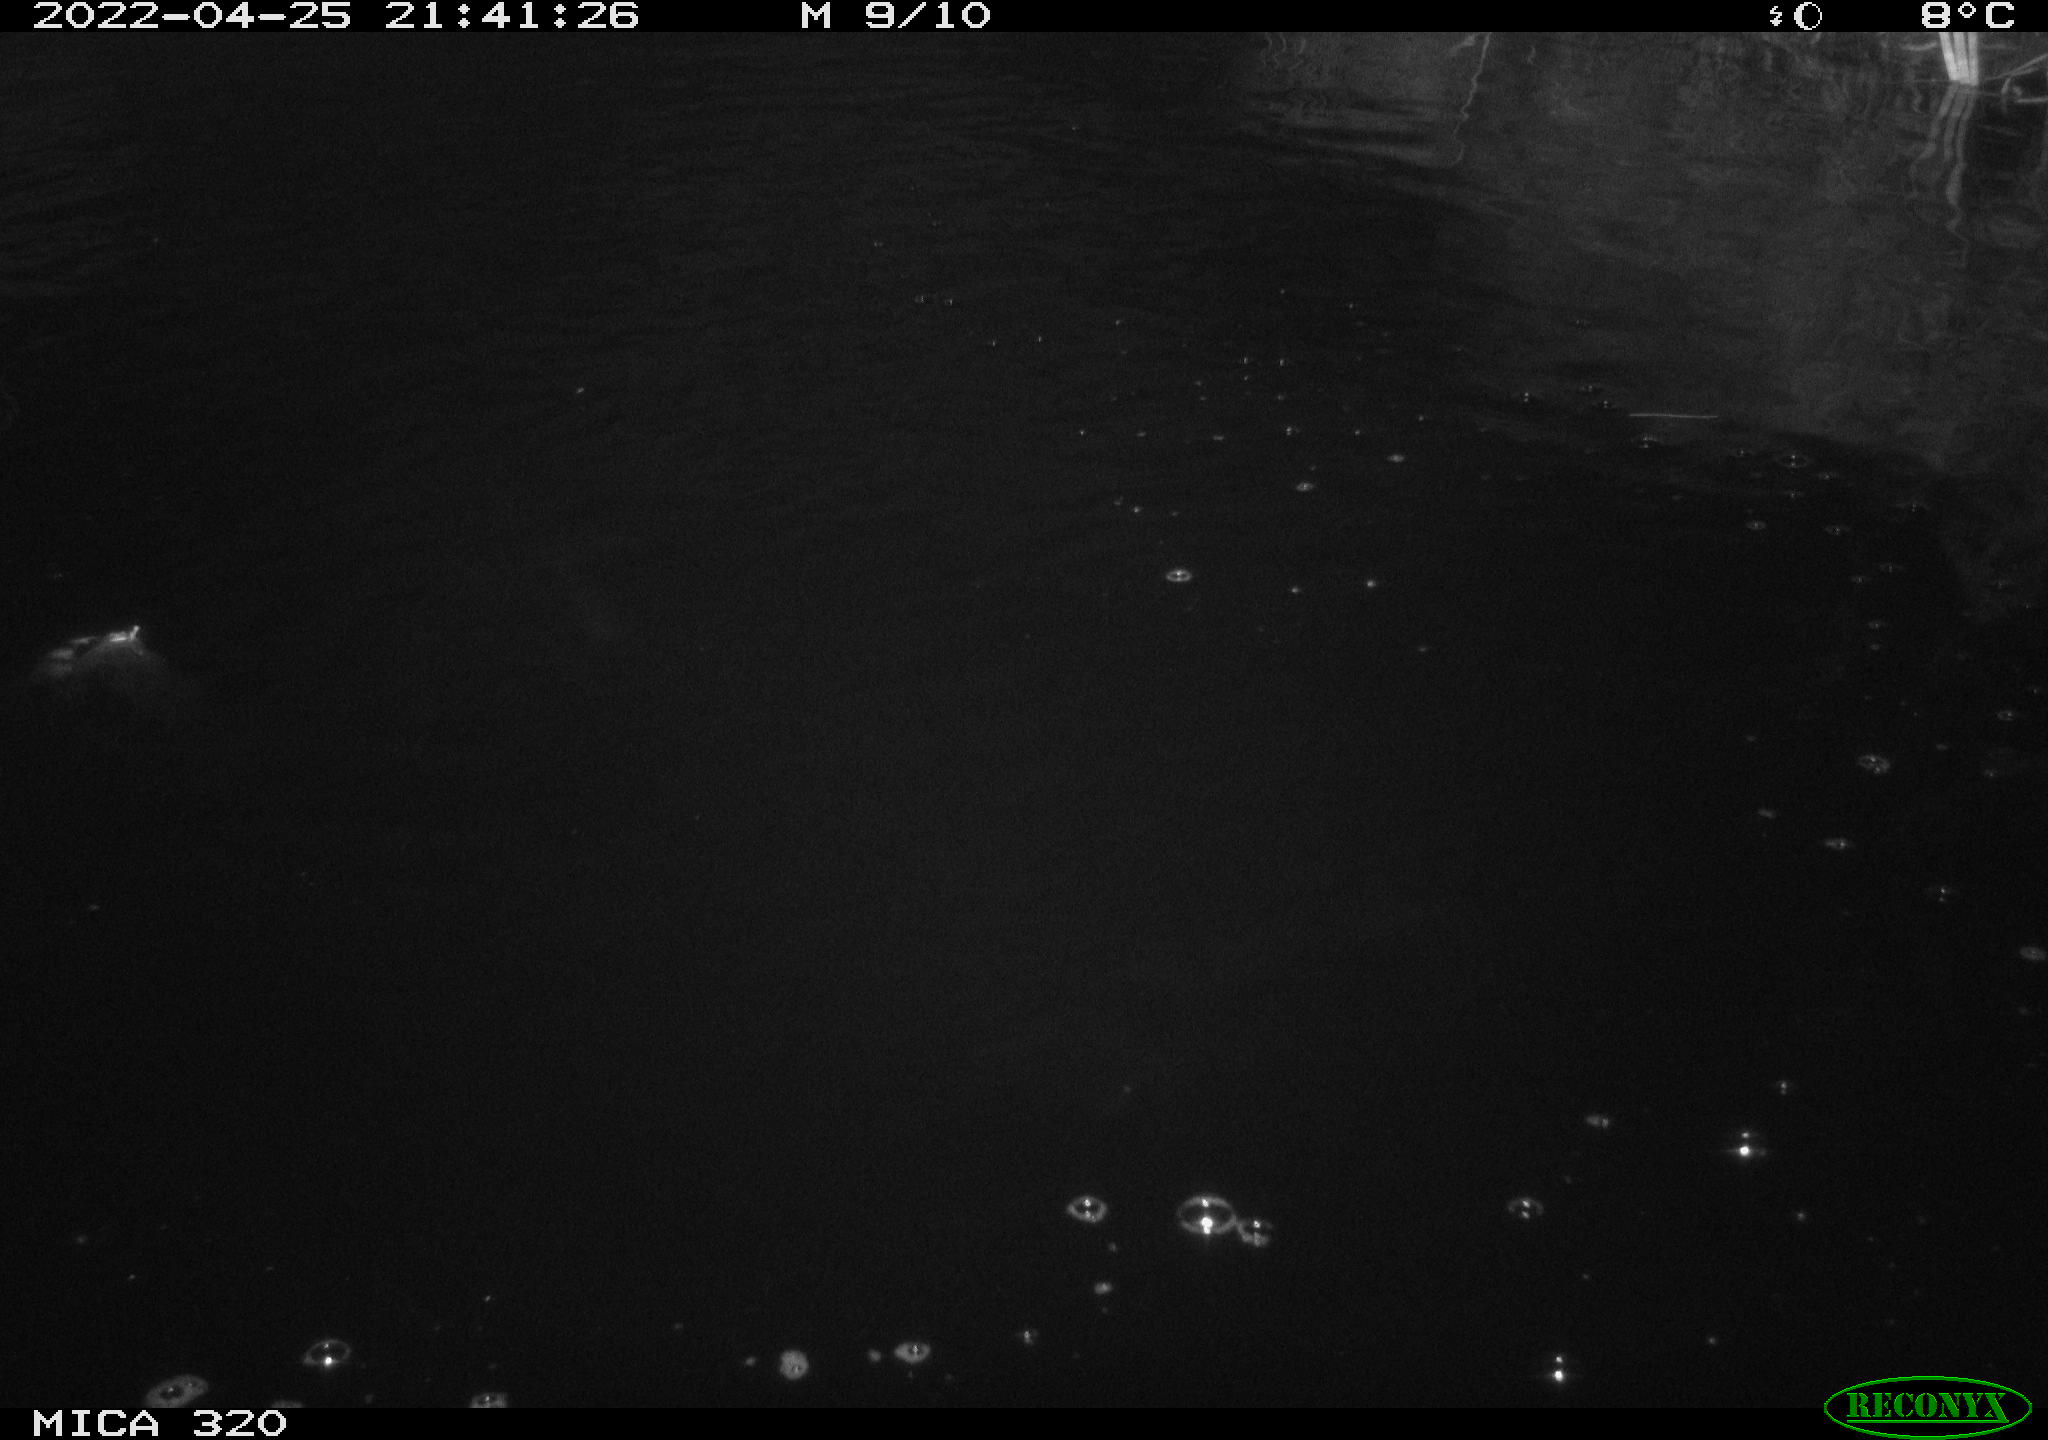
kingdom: Animalia
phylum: Chordata
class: Aves
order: Anseriformes
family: Anatidae
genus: Anas
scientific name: Anas platyrhynchos
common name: Mallard
